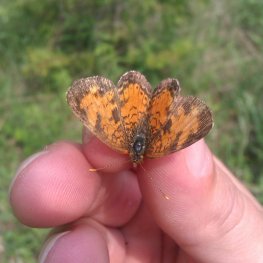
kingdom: Animalia
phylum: Arthropoda
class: Insecta
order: Lepidoptera
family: Nymphalidae
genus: Phyciodes
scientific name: Phyciodes tharos
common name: Northern Crescent
